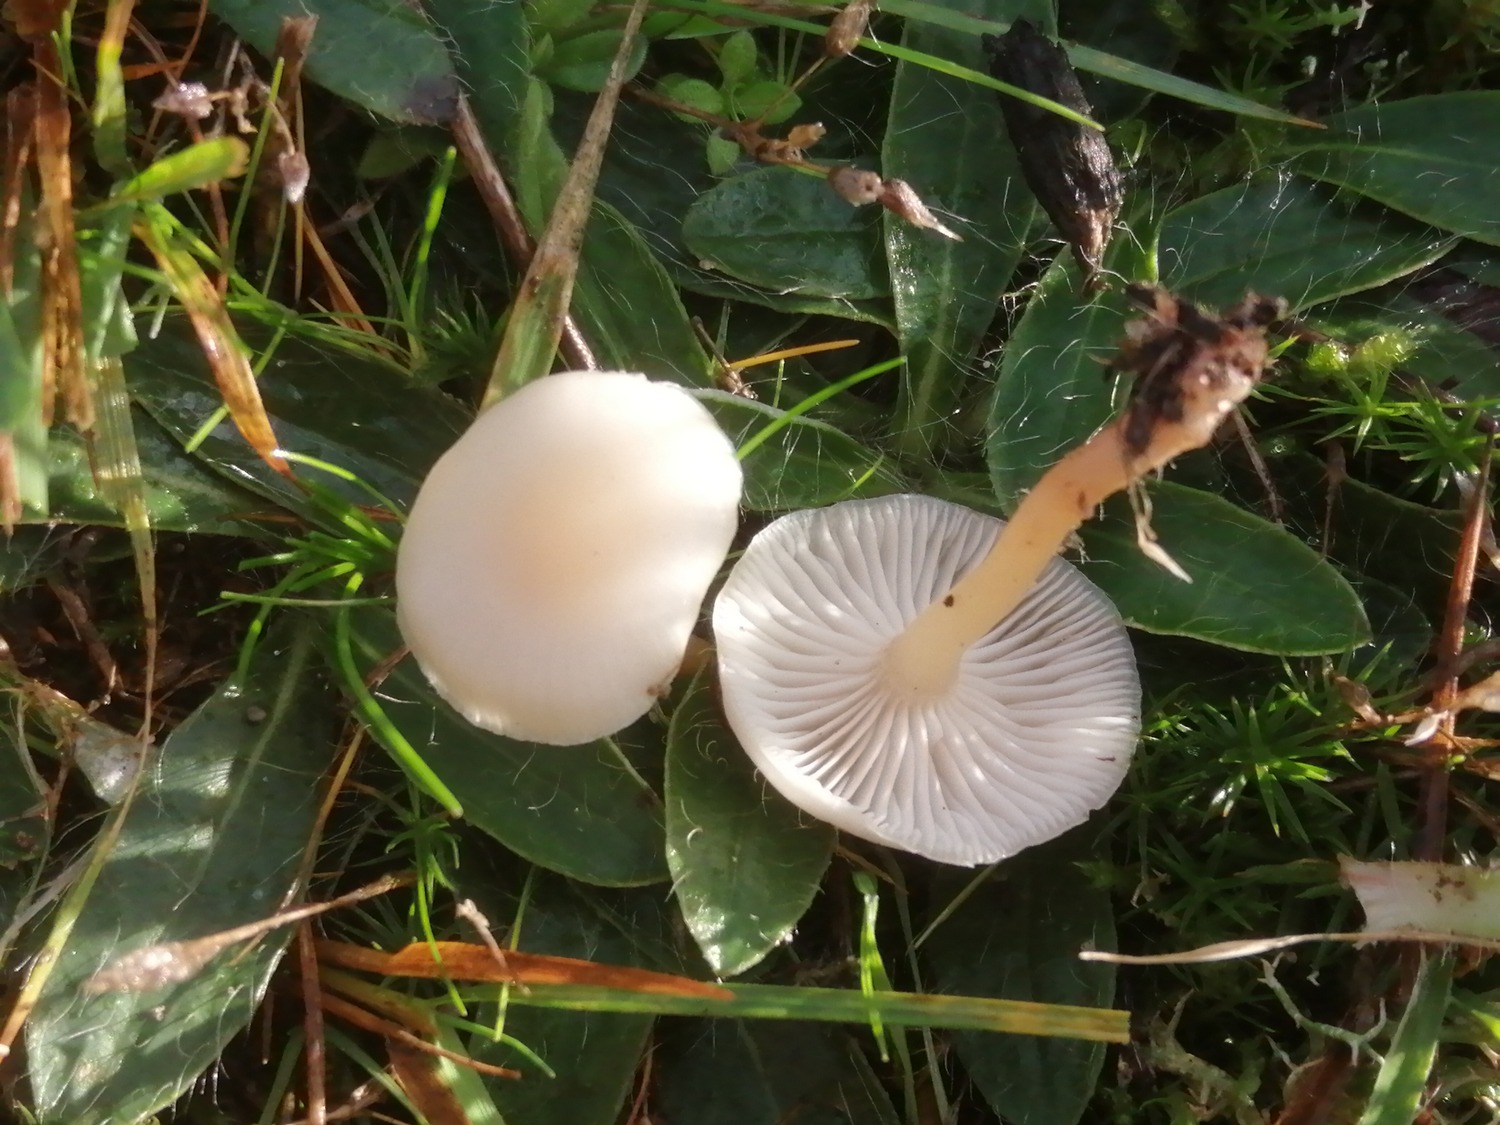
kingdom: Fungi
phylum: Basidiomycota
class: Agaricomycetes
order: Agaricales
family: Tricholomataceae
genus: Clitocybe
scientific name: Clitocybe
